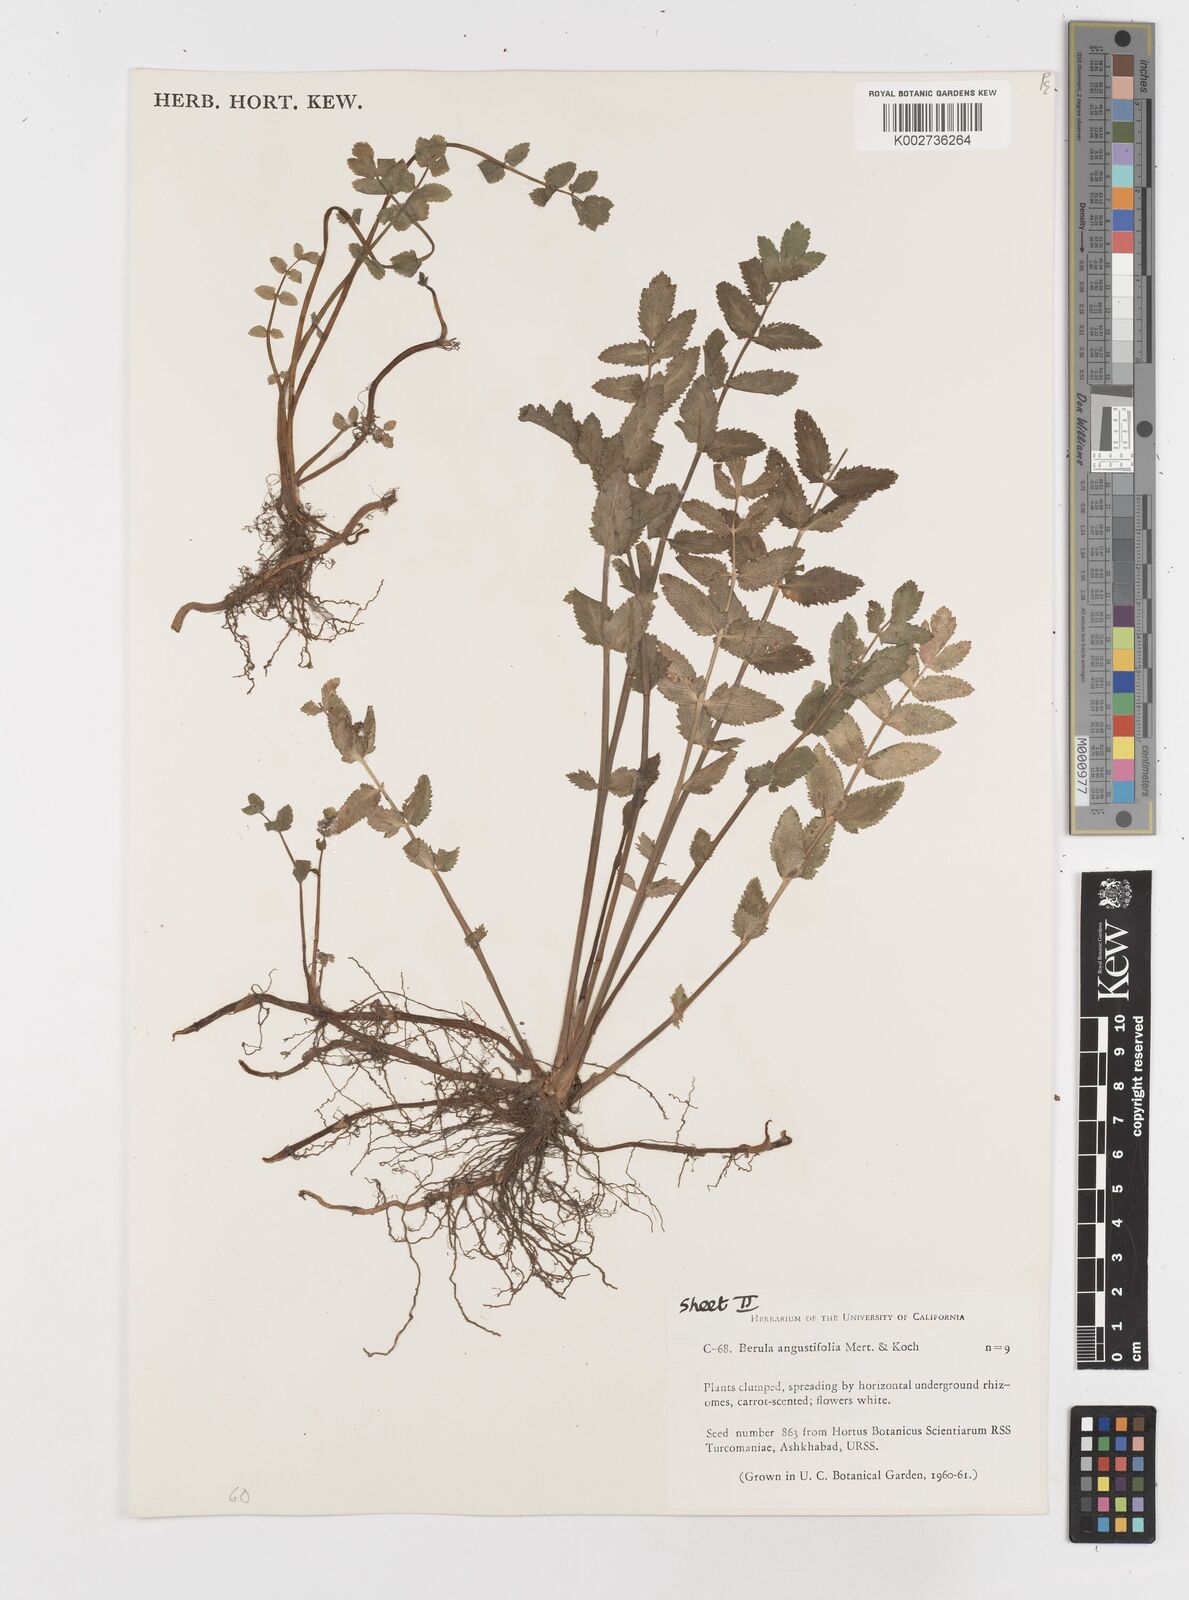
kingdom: Plantae
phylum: Tracheophyta
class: Magnoliopsida
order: Apiales
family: Apiaceae
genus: Berula
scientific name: Berula erecta
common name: Lesser water-parsnip
